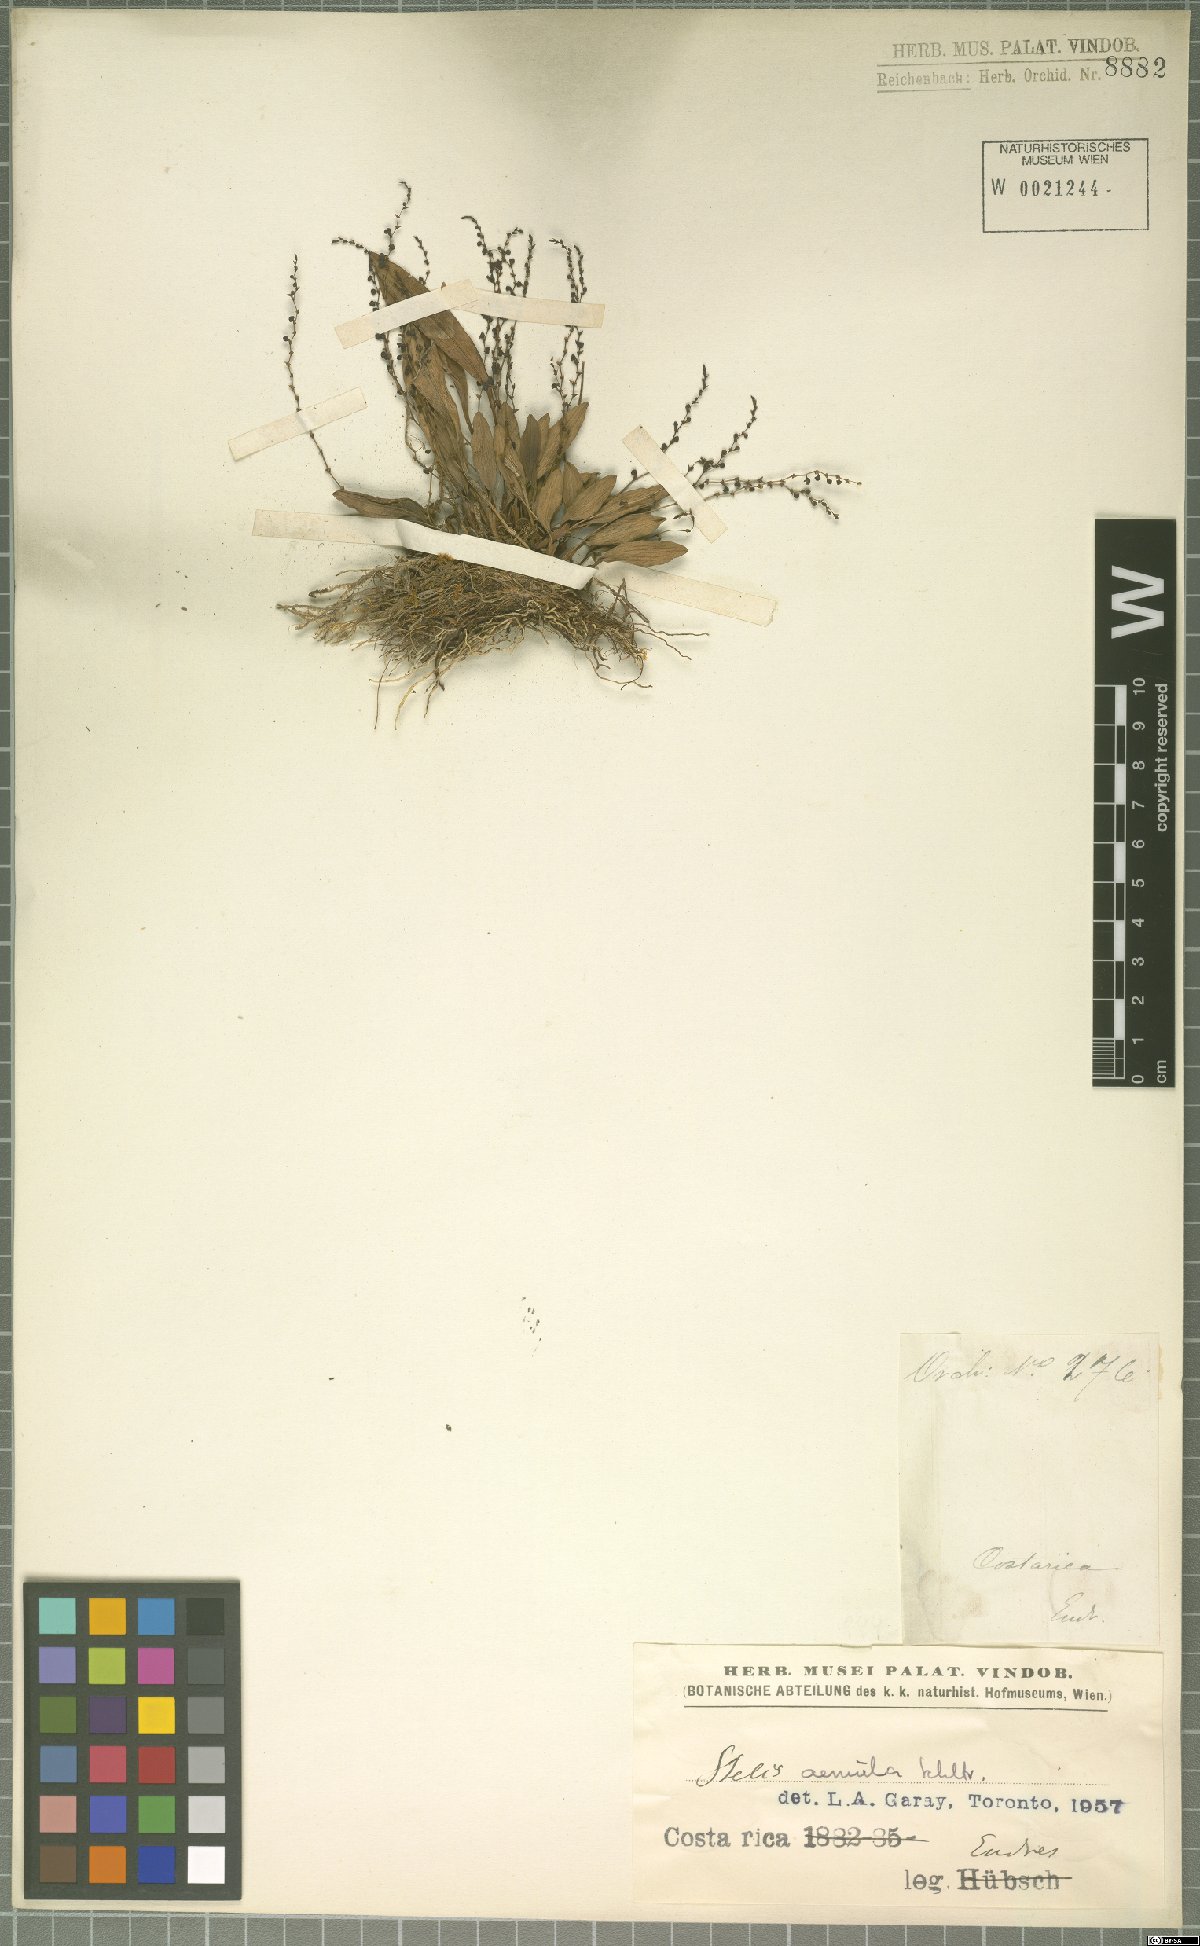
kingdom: Plantae
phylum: Tracheophyta
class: Liliopsida
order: Asparagales
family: Orchidaceae
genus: Stelis
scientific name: Stelis aemula
